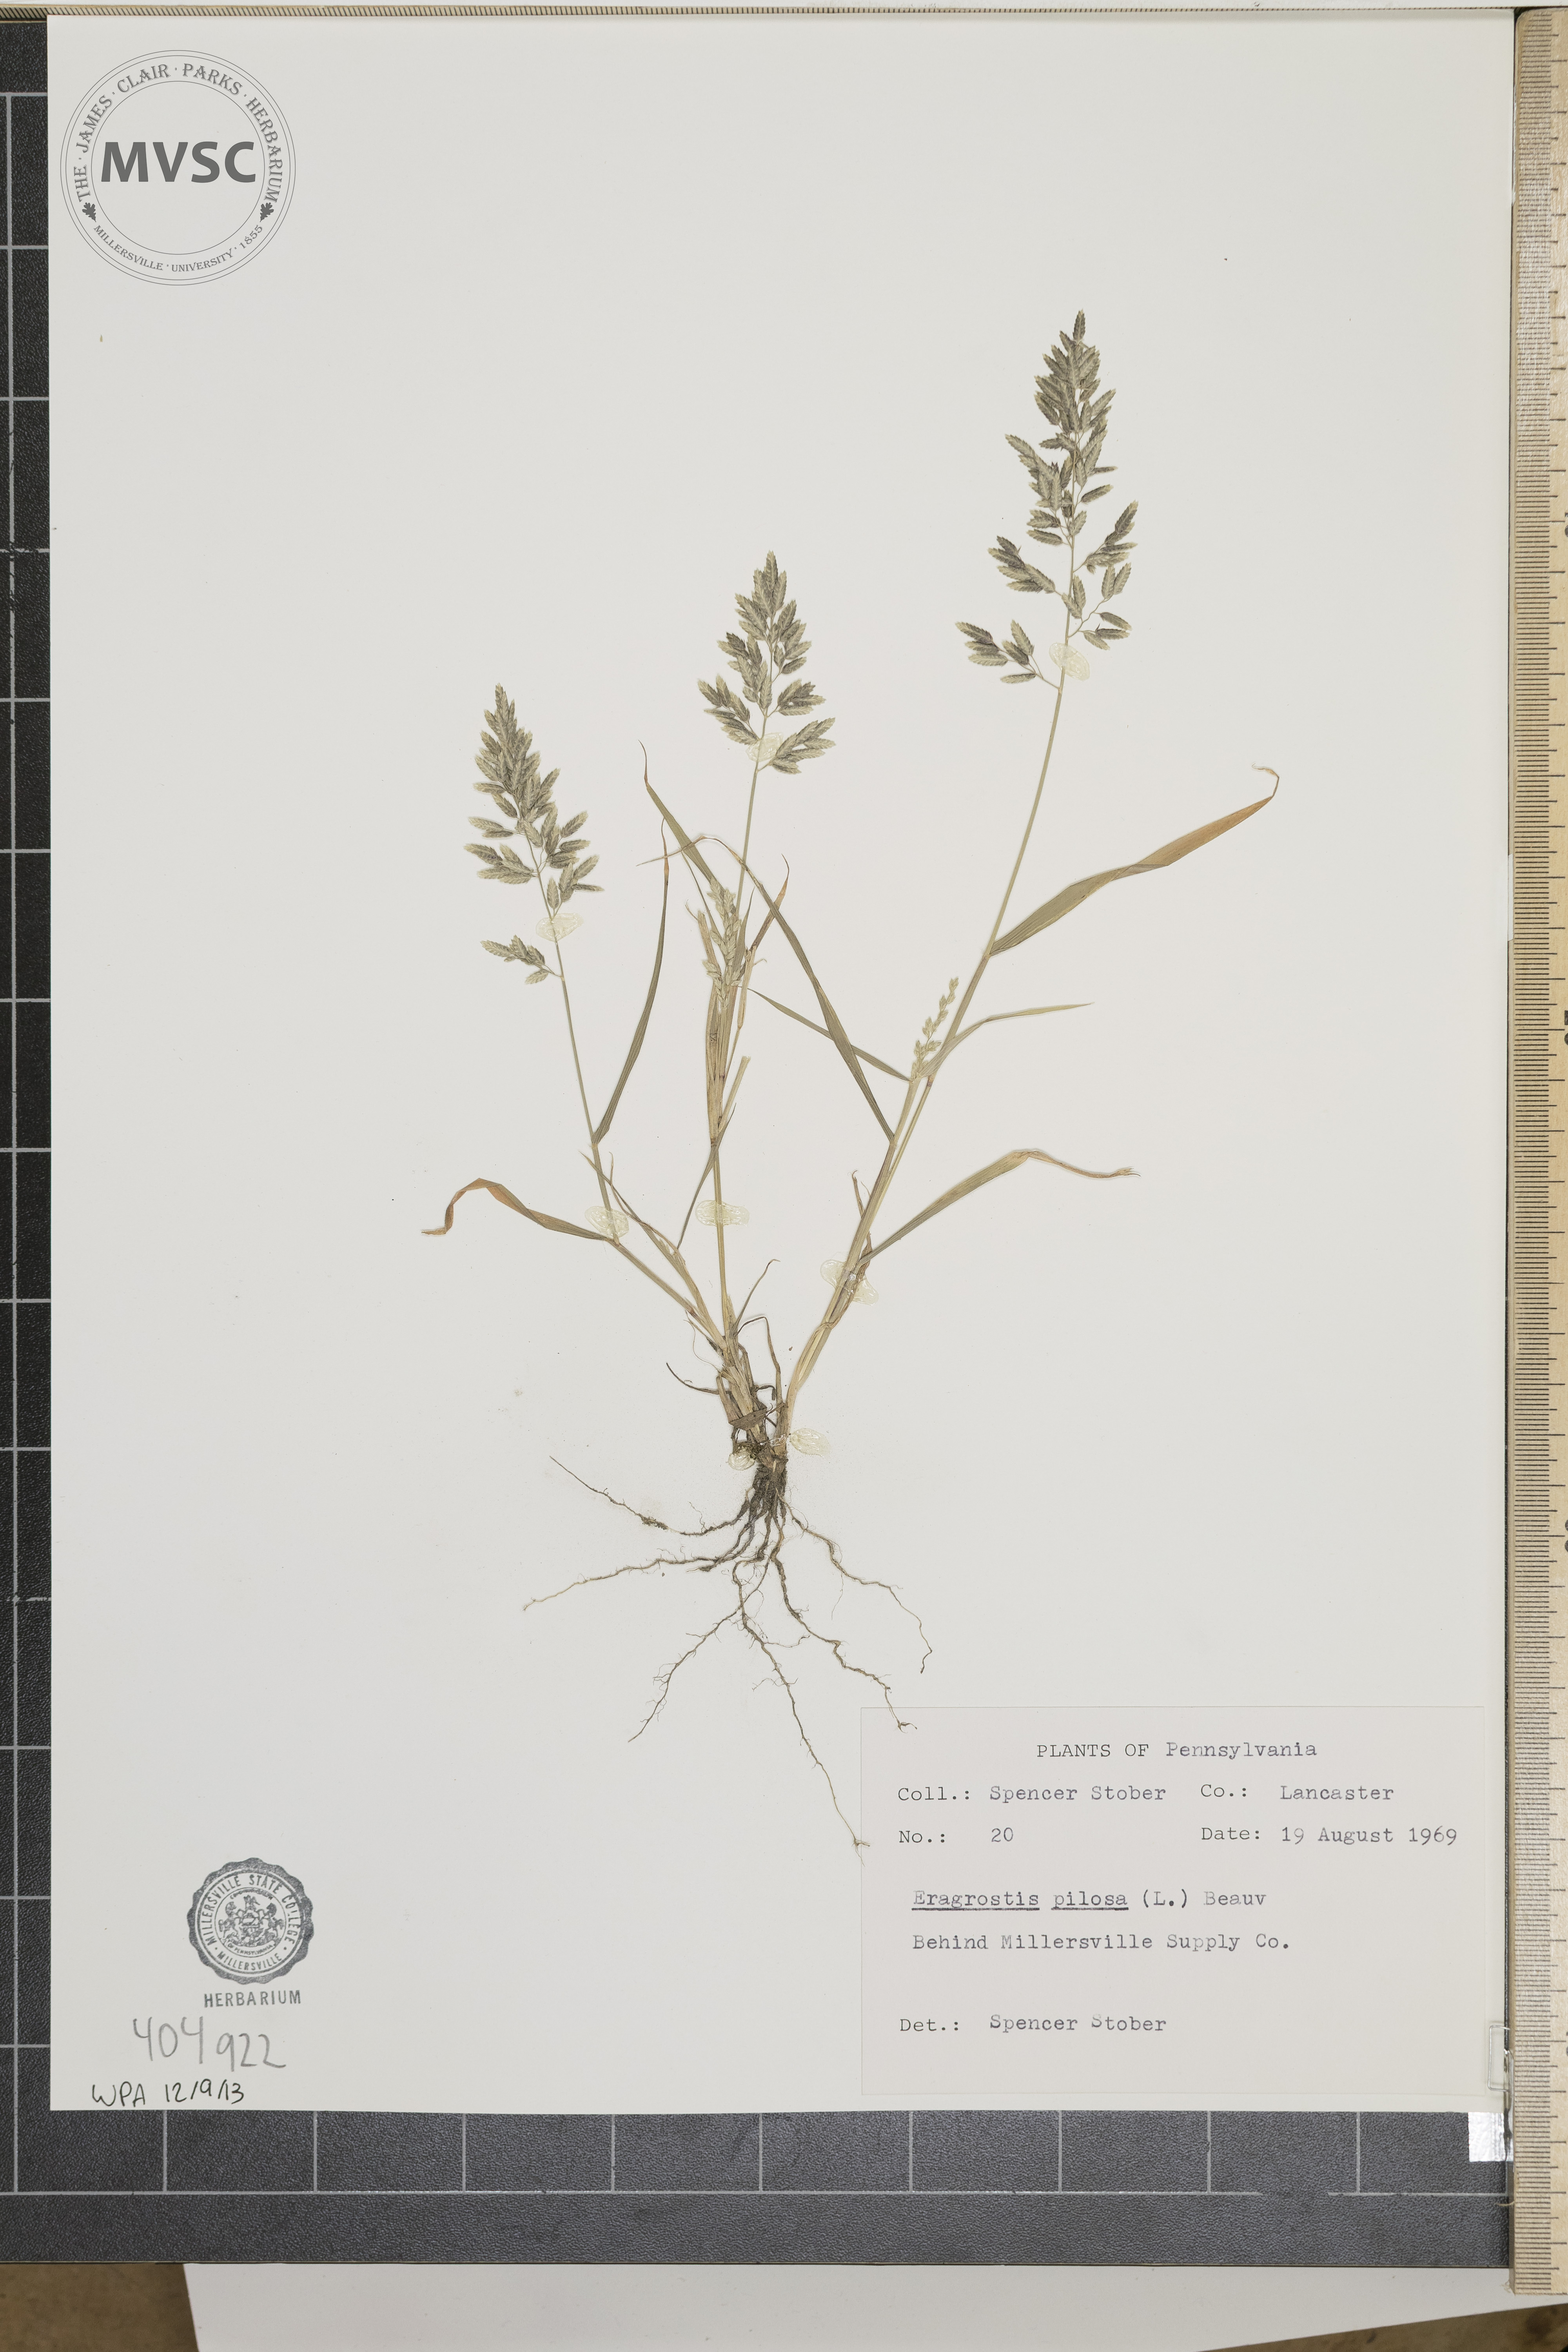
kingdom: Plantae
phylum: Tracheophyta
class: Liliopsida
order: Poales
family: Poaceae
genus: Eragrostis
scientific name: Eragrostis pilosa
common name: Indian lovegrass
